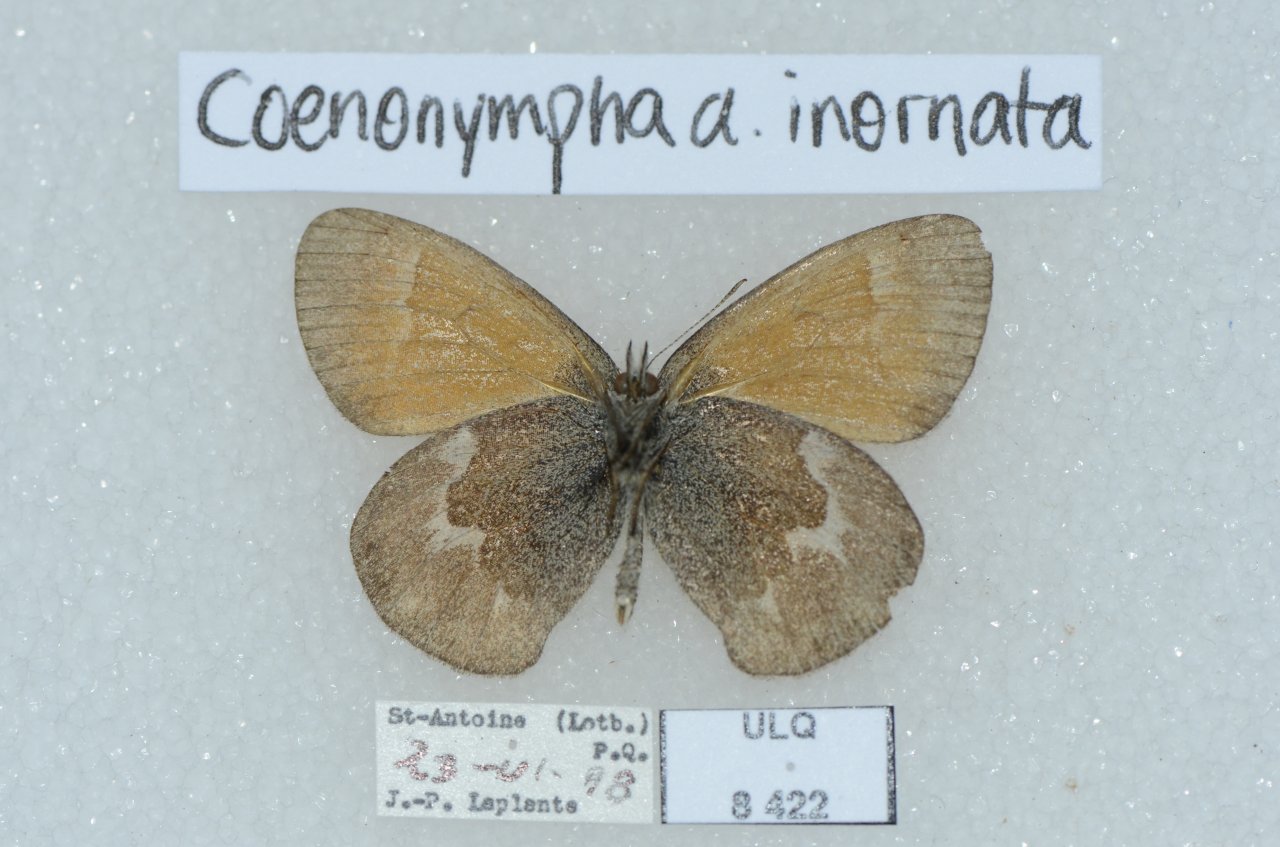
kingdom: Animalia
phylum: Arthropoda
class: Insecta
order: Lepidoptera
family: Nymphalidae
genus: Coenonympha
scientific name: Coenonympha tullia
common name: Large Heath
